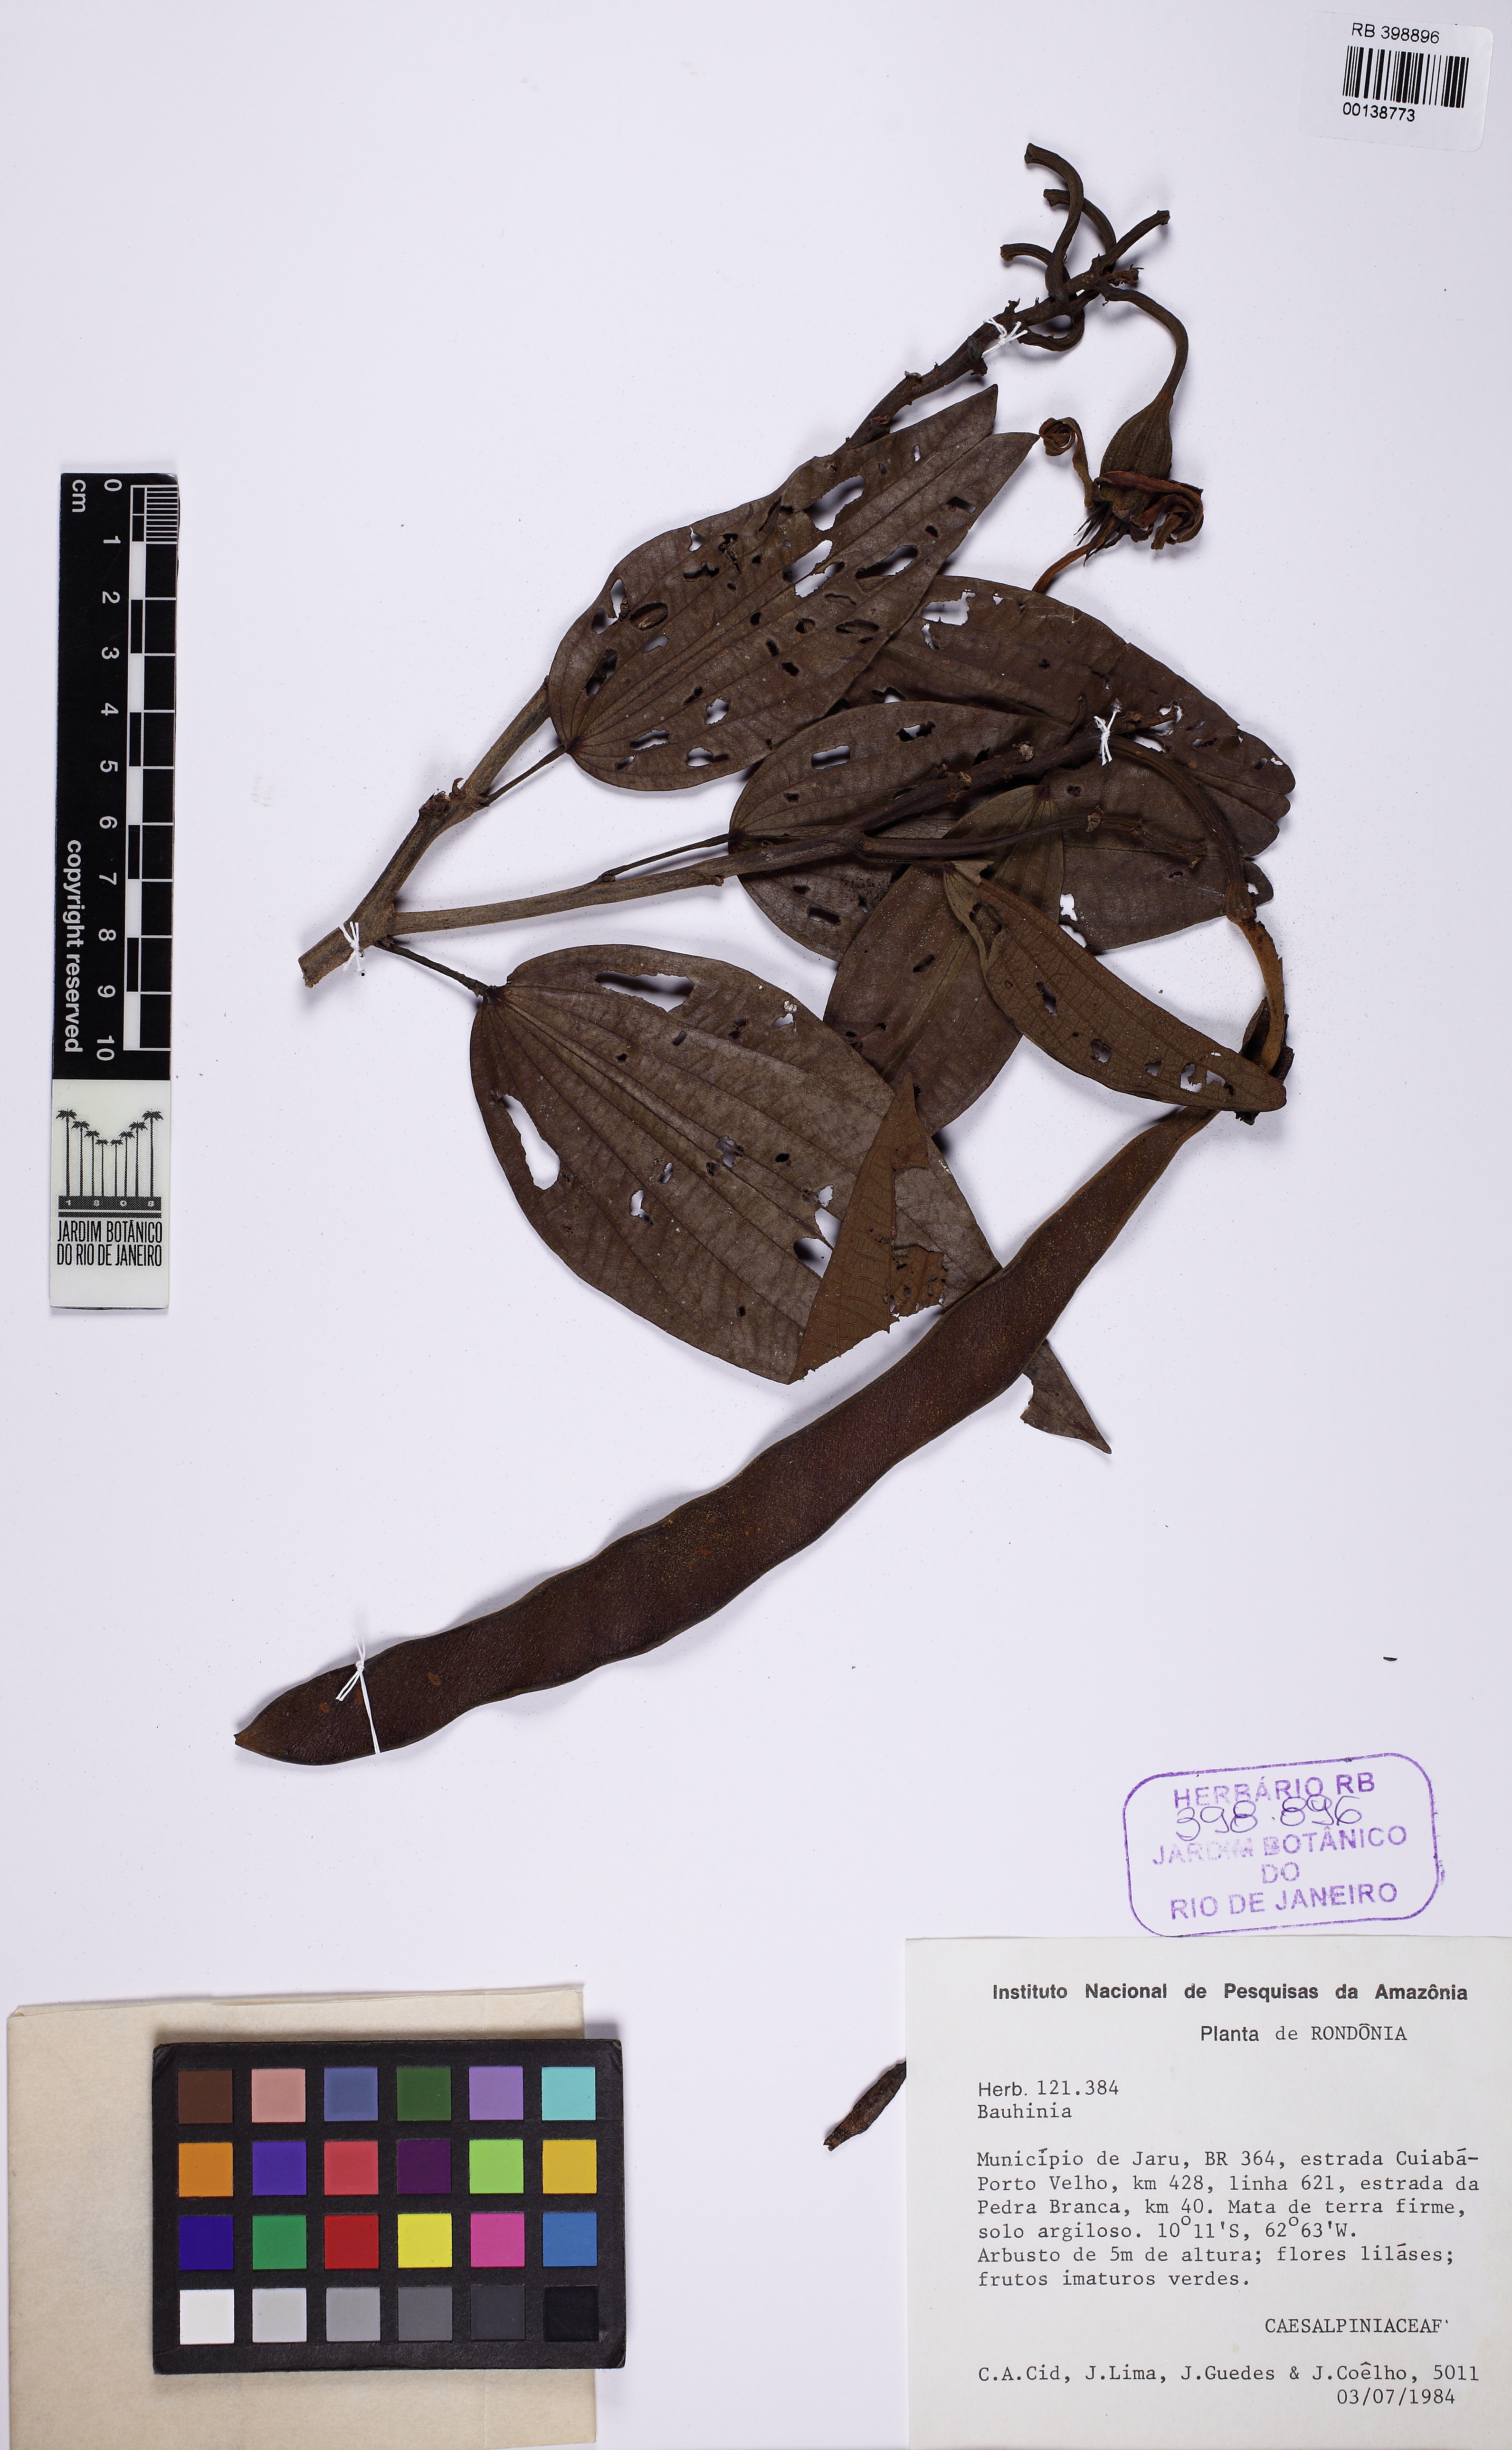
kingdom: Plantae
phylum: Tracheophyta
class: Magnoliopsida
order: Fabales
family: Fabaceae
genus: Bauhinia
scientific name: Bauhinia
